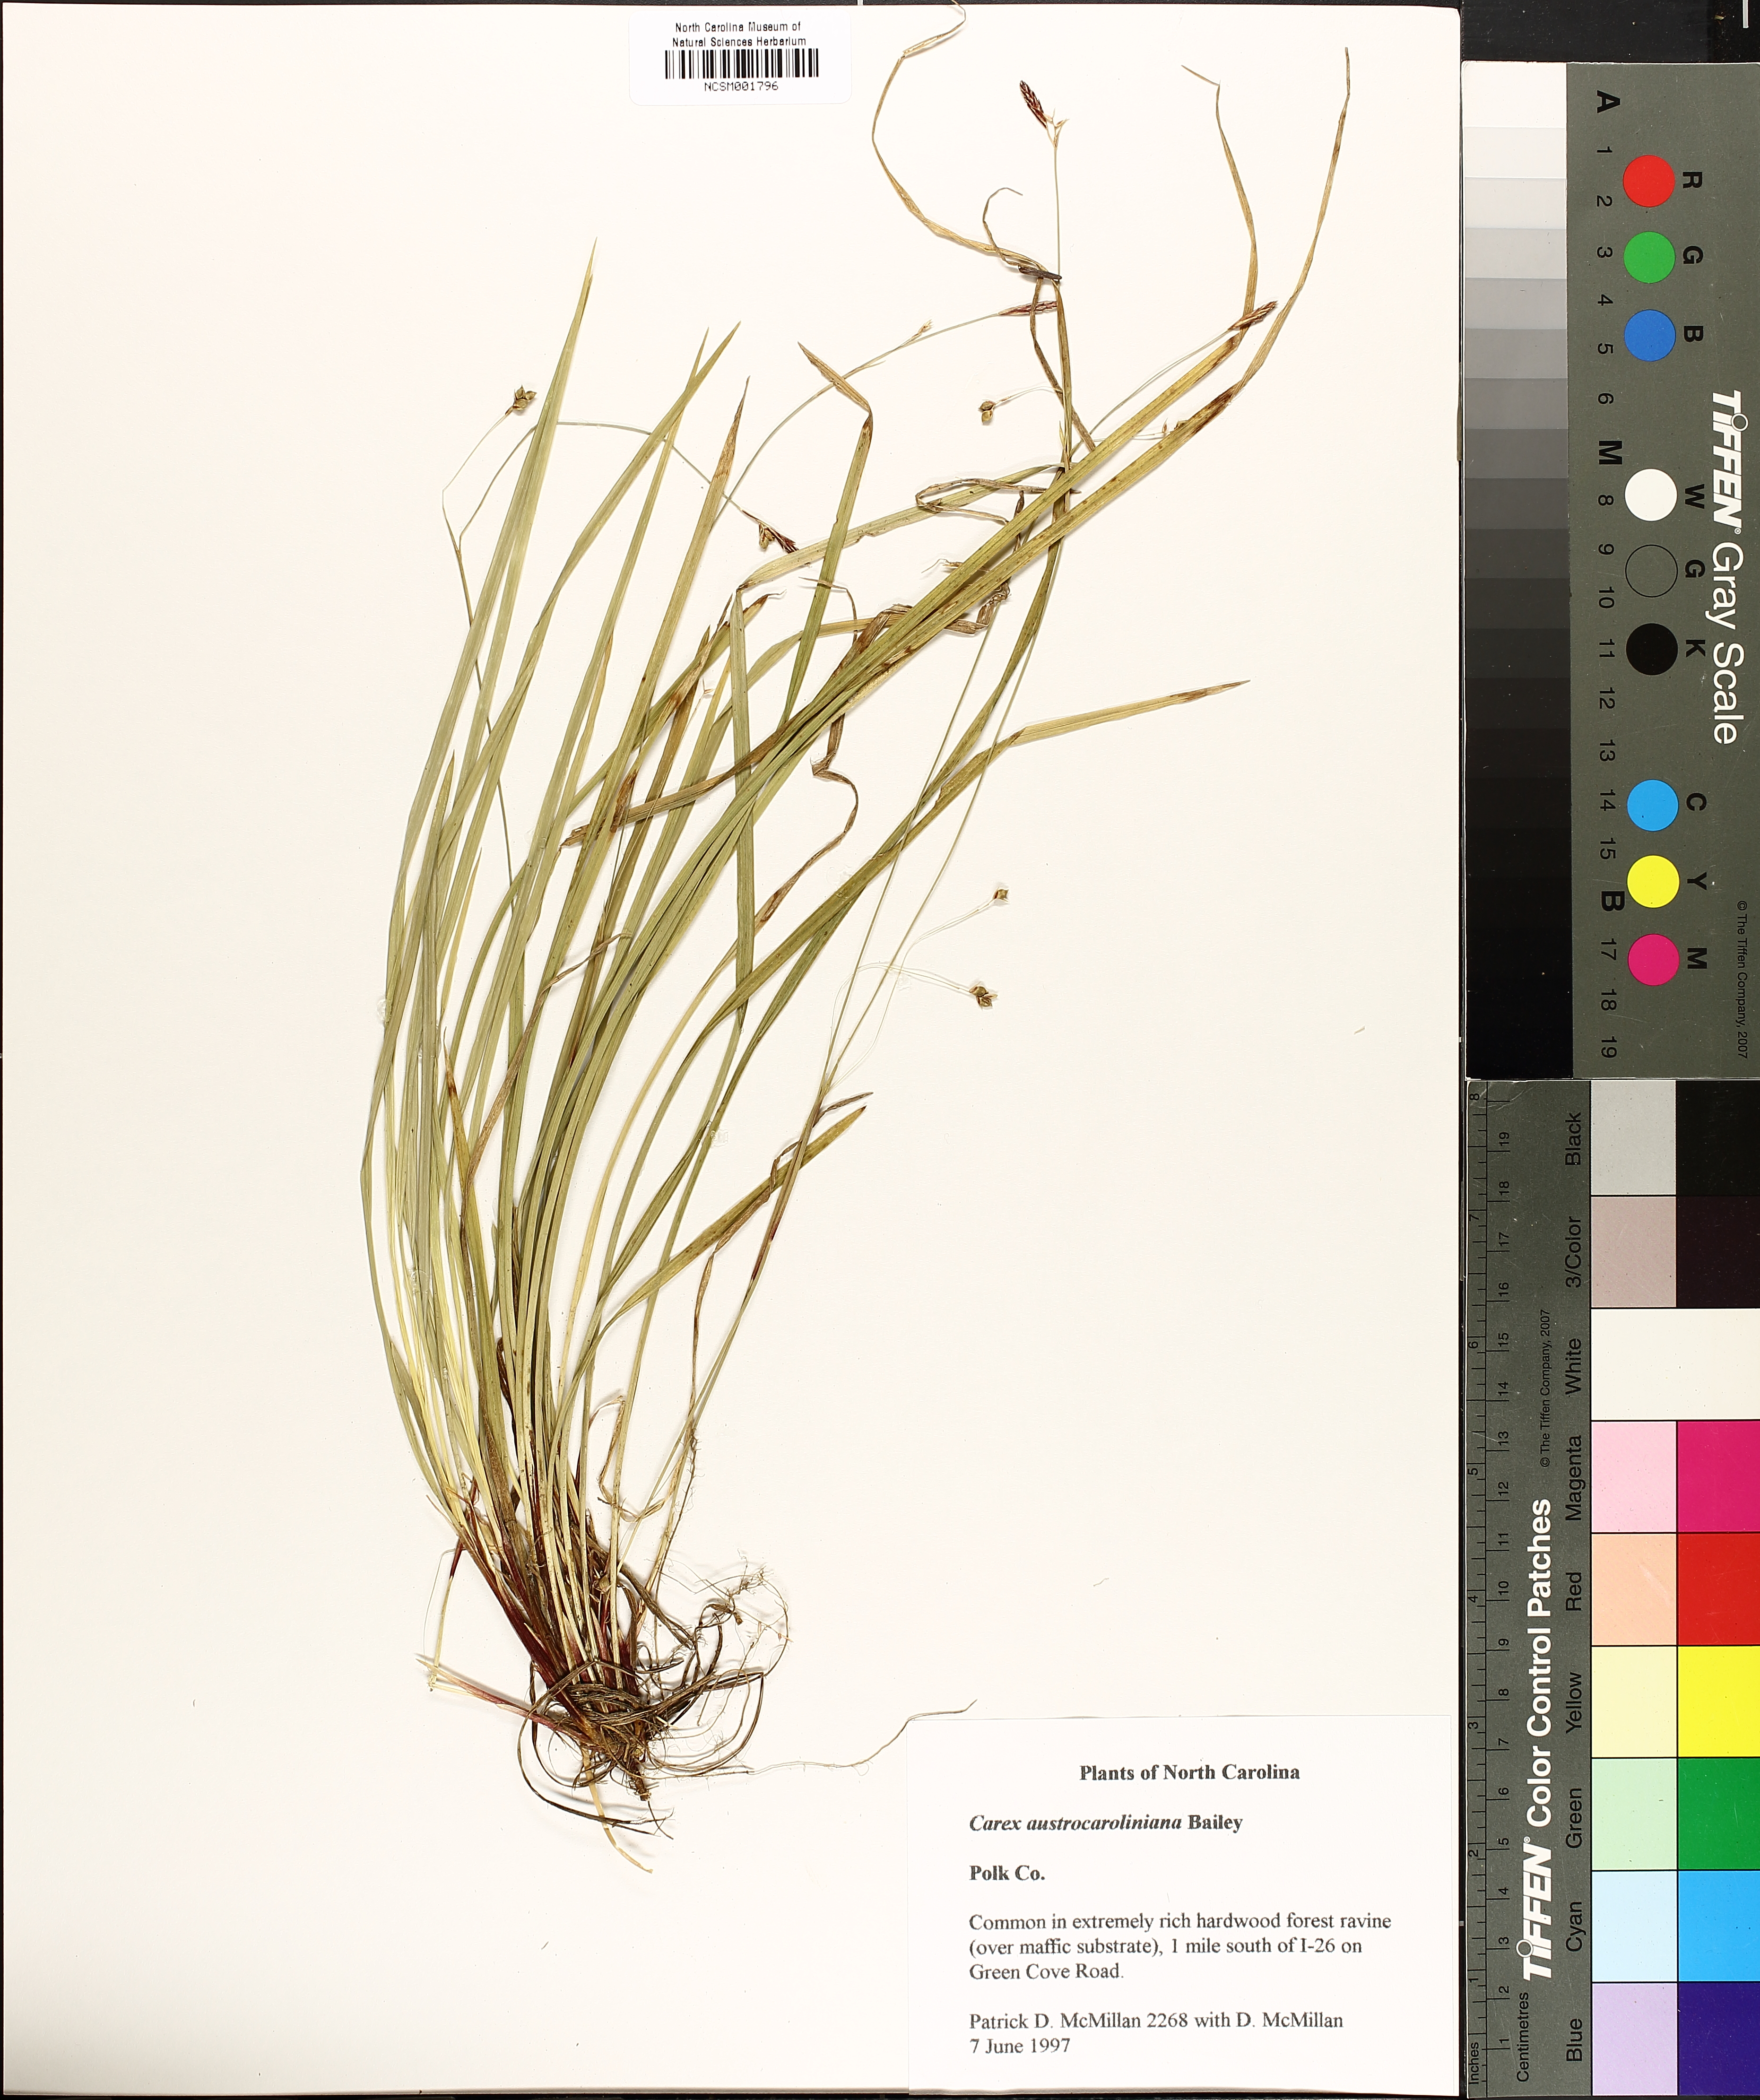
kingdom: Plantae
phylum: Tracheophyta
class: Liliopsida
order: Poales
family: Cyperaceae
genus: Carex
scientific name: Carex austrocaroliniana
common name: Tarheel sedge
